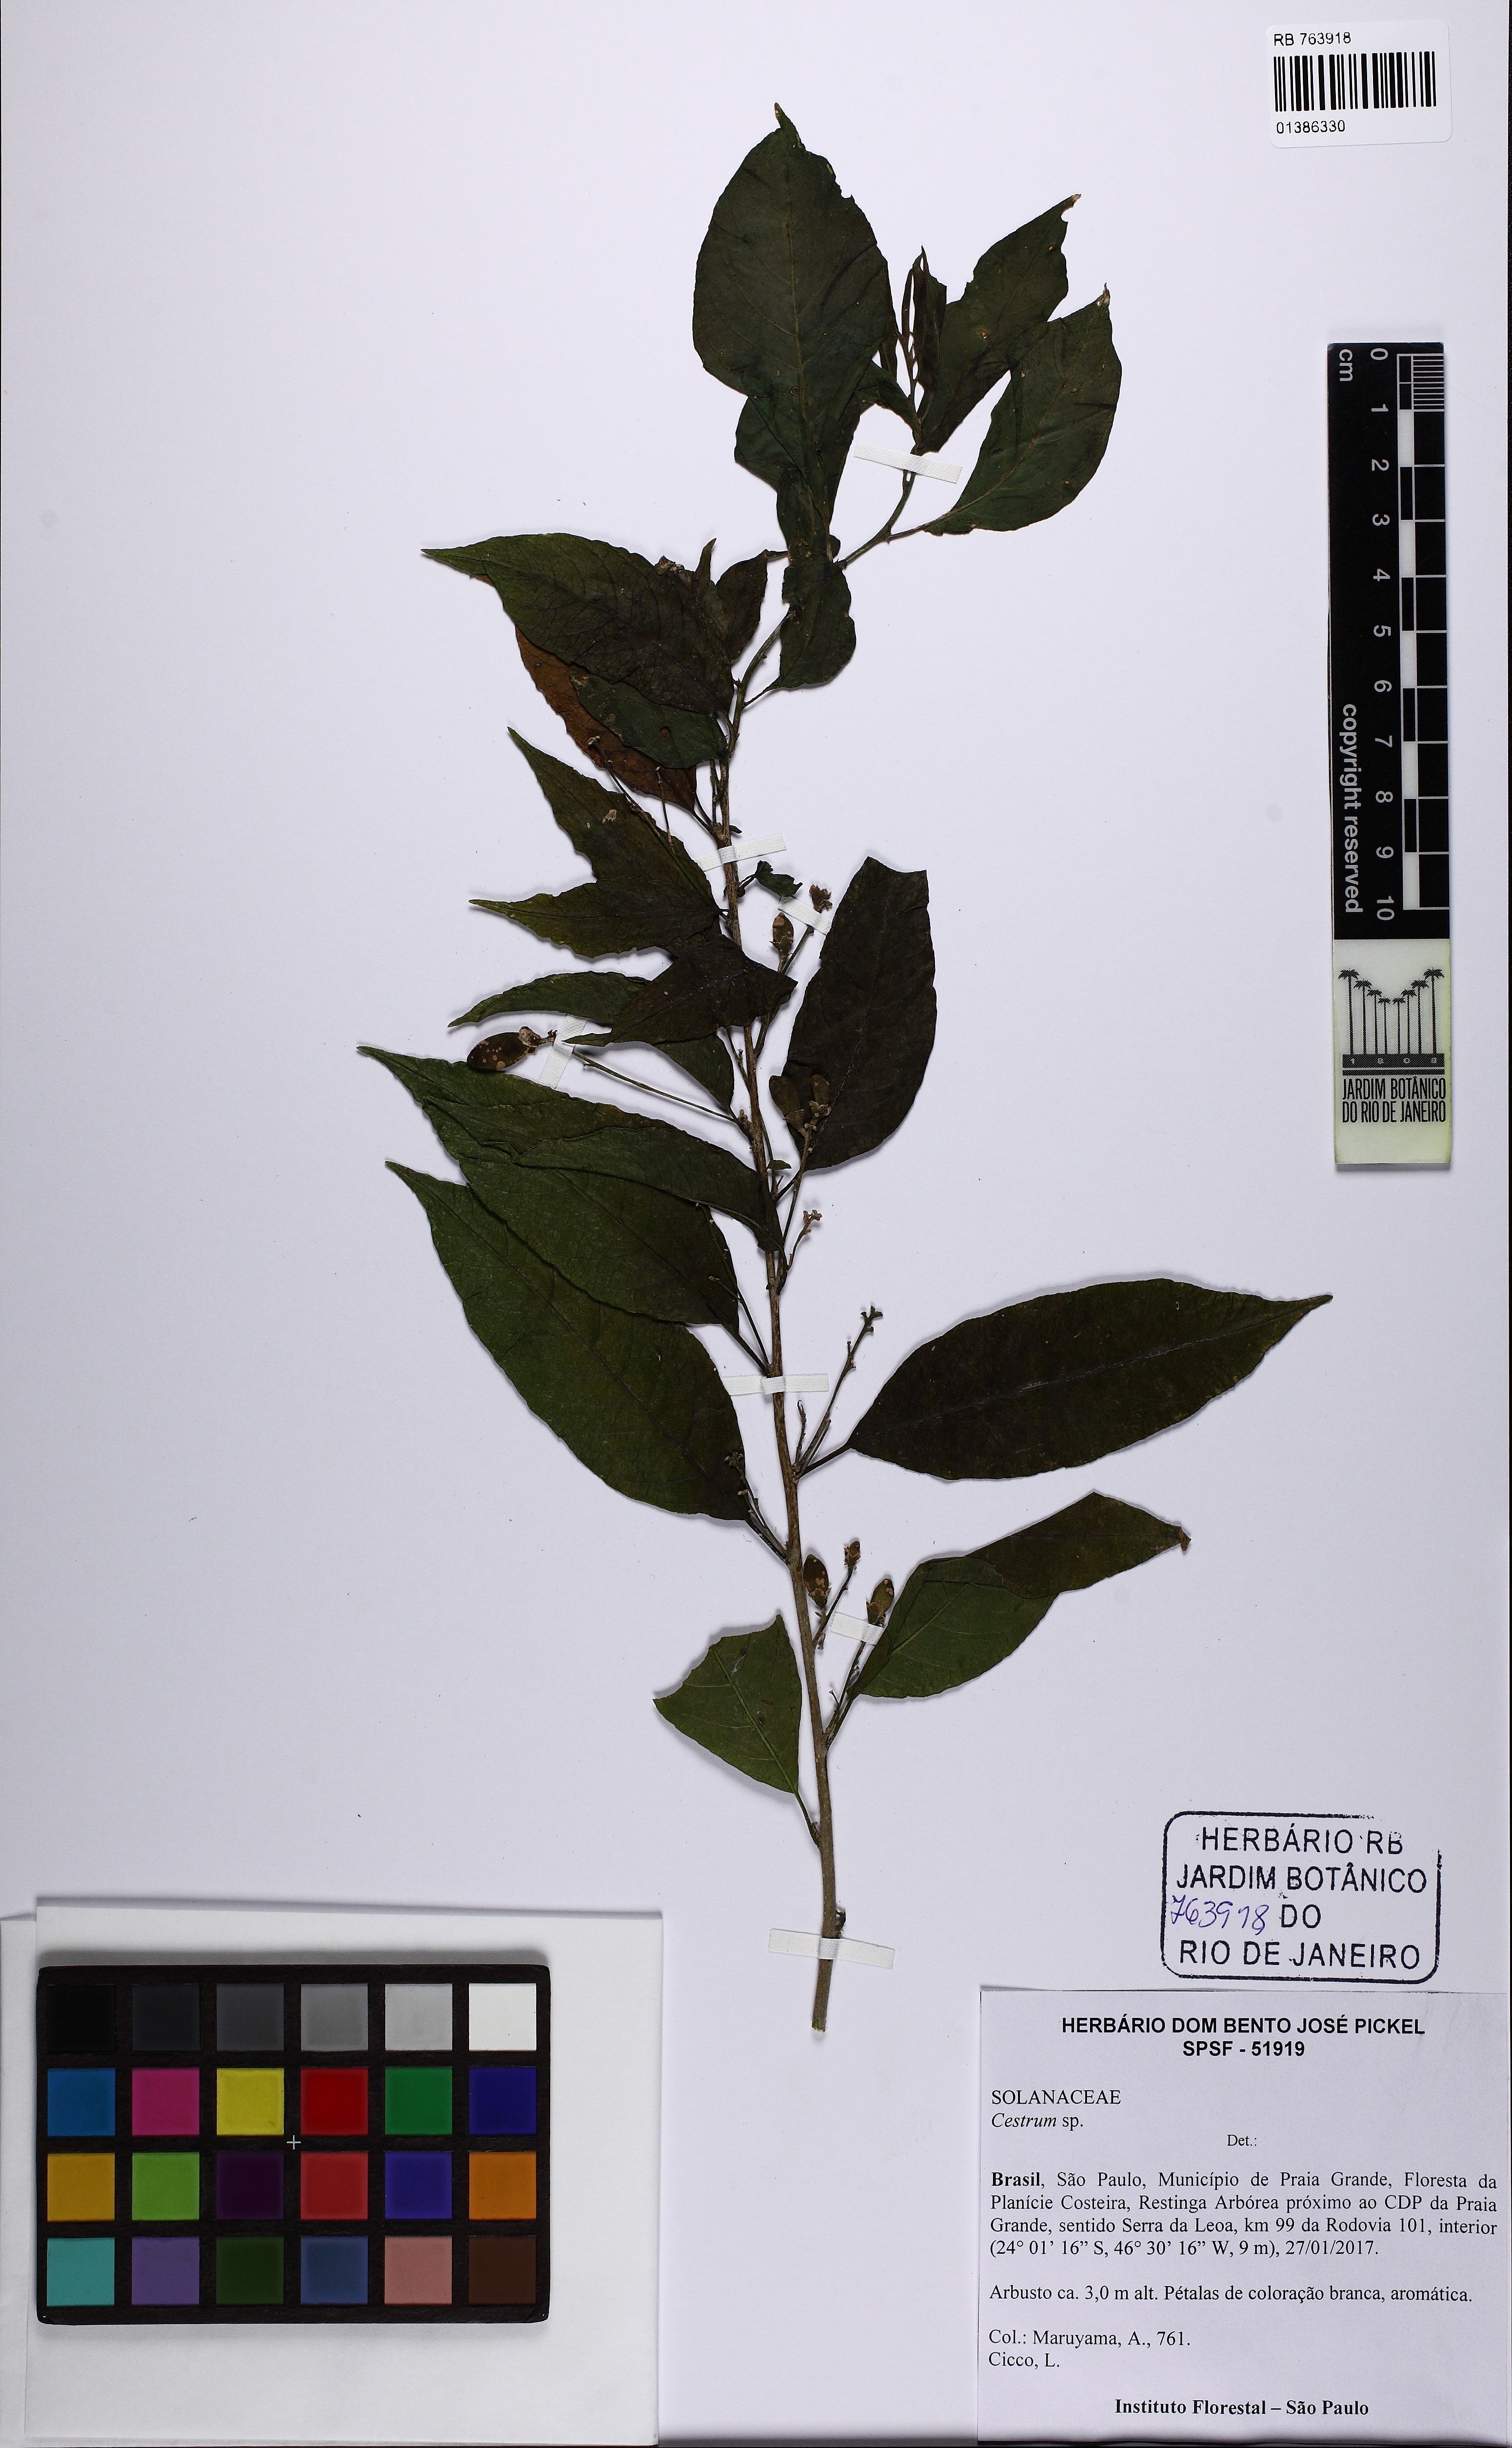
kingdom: Plantae
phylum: Tracheophyta
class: Magnoliopsida
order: Solanales
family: Solanaceae
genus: Cestrum
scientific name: Cestrum
